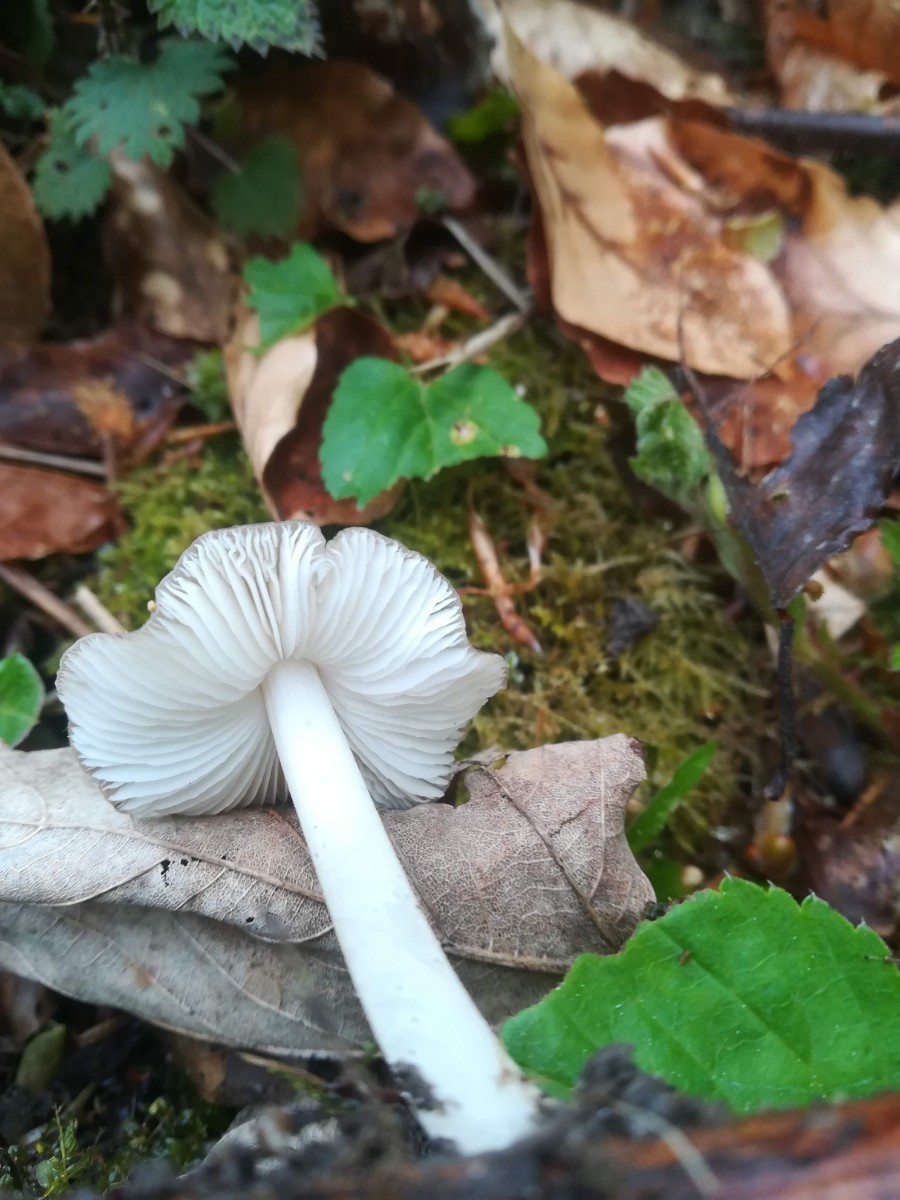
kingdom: Fungi
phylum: Basidiomycota
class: Agaricomycetes
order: Agaricales
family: Porotheleaceae
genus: Hydropodia
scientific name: Hydropodia subalpina
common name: vår-fnugfod
